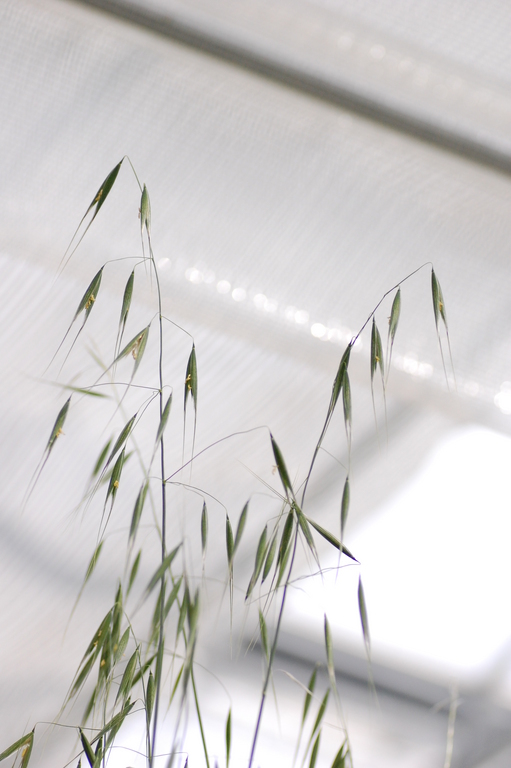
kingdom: Plantae
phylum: Tracheophyta
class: Liliopsida
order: Poales
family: Poaceae
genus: Avena
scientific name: Avena sterilis
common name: Animated oat
